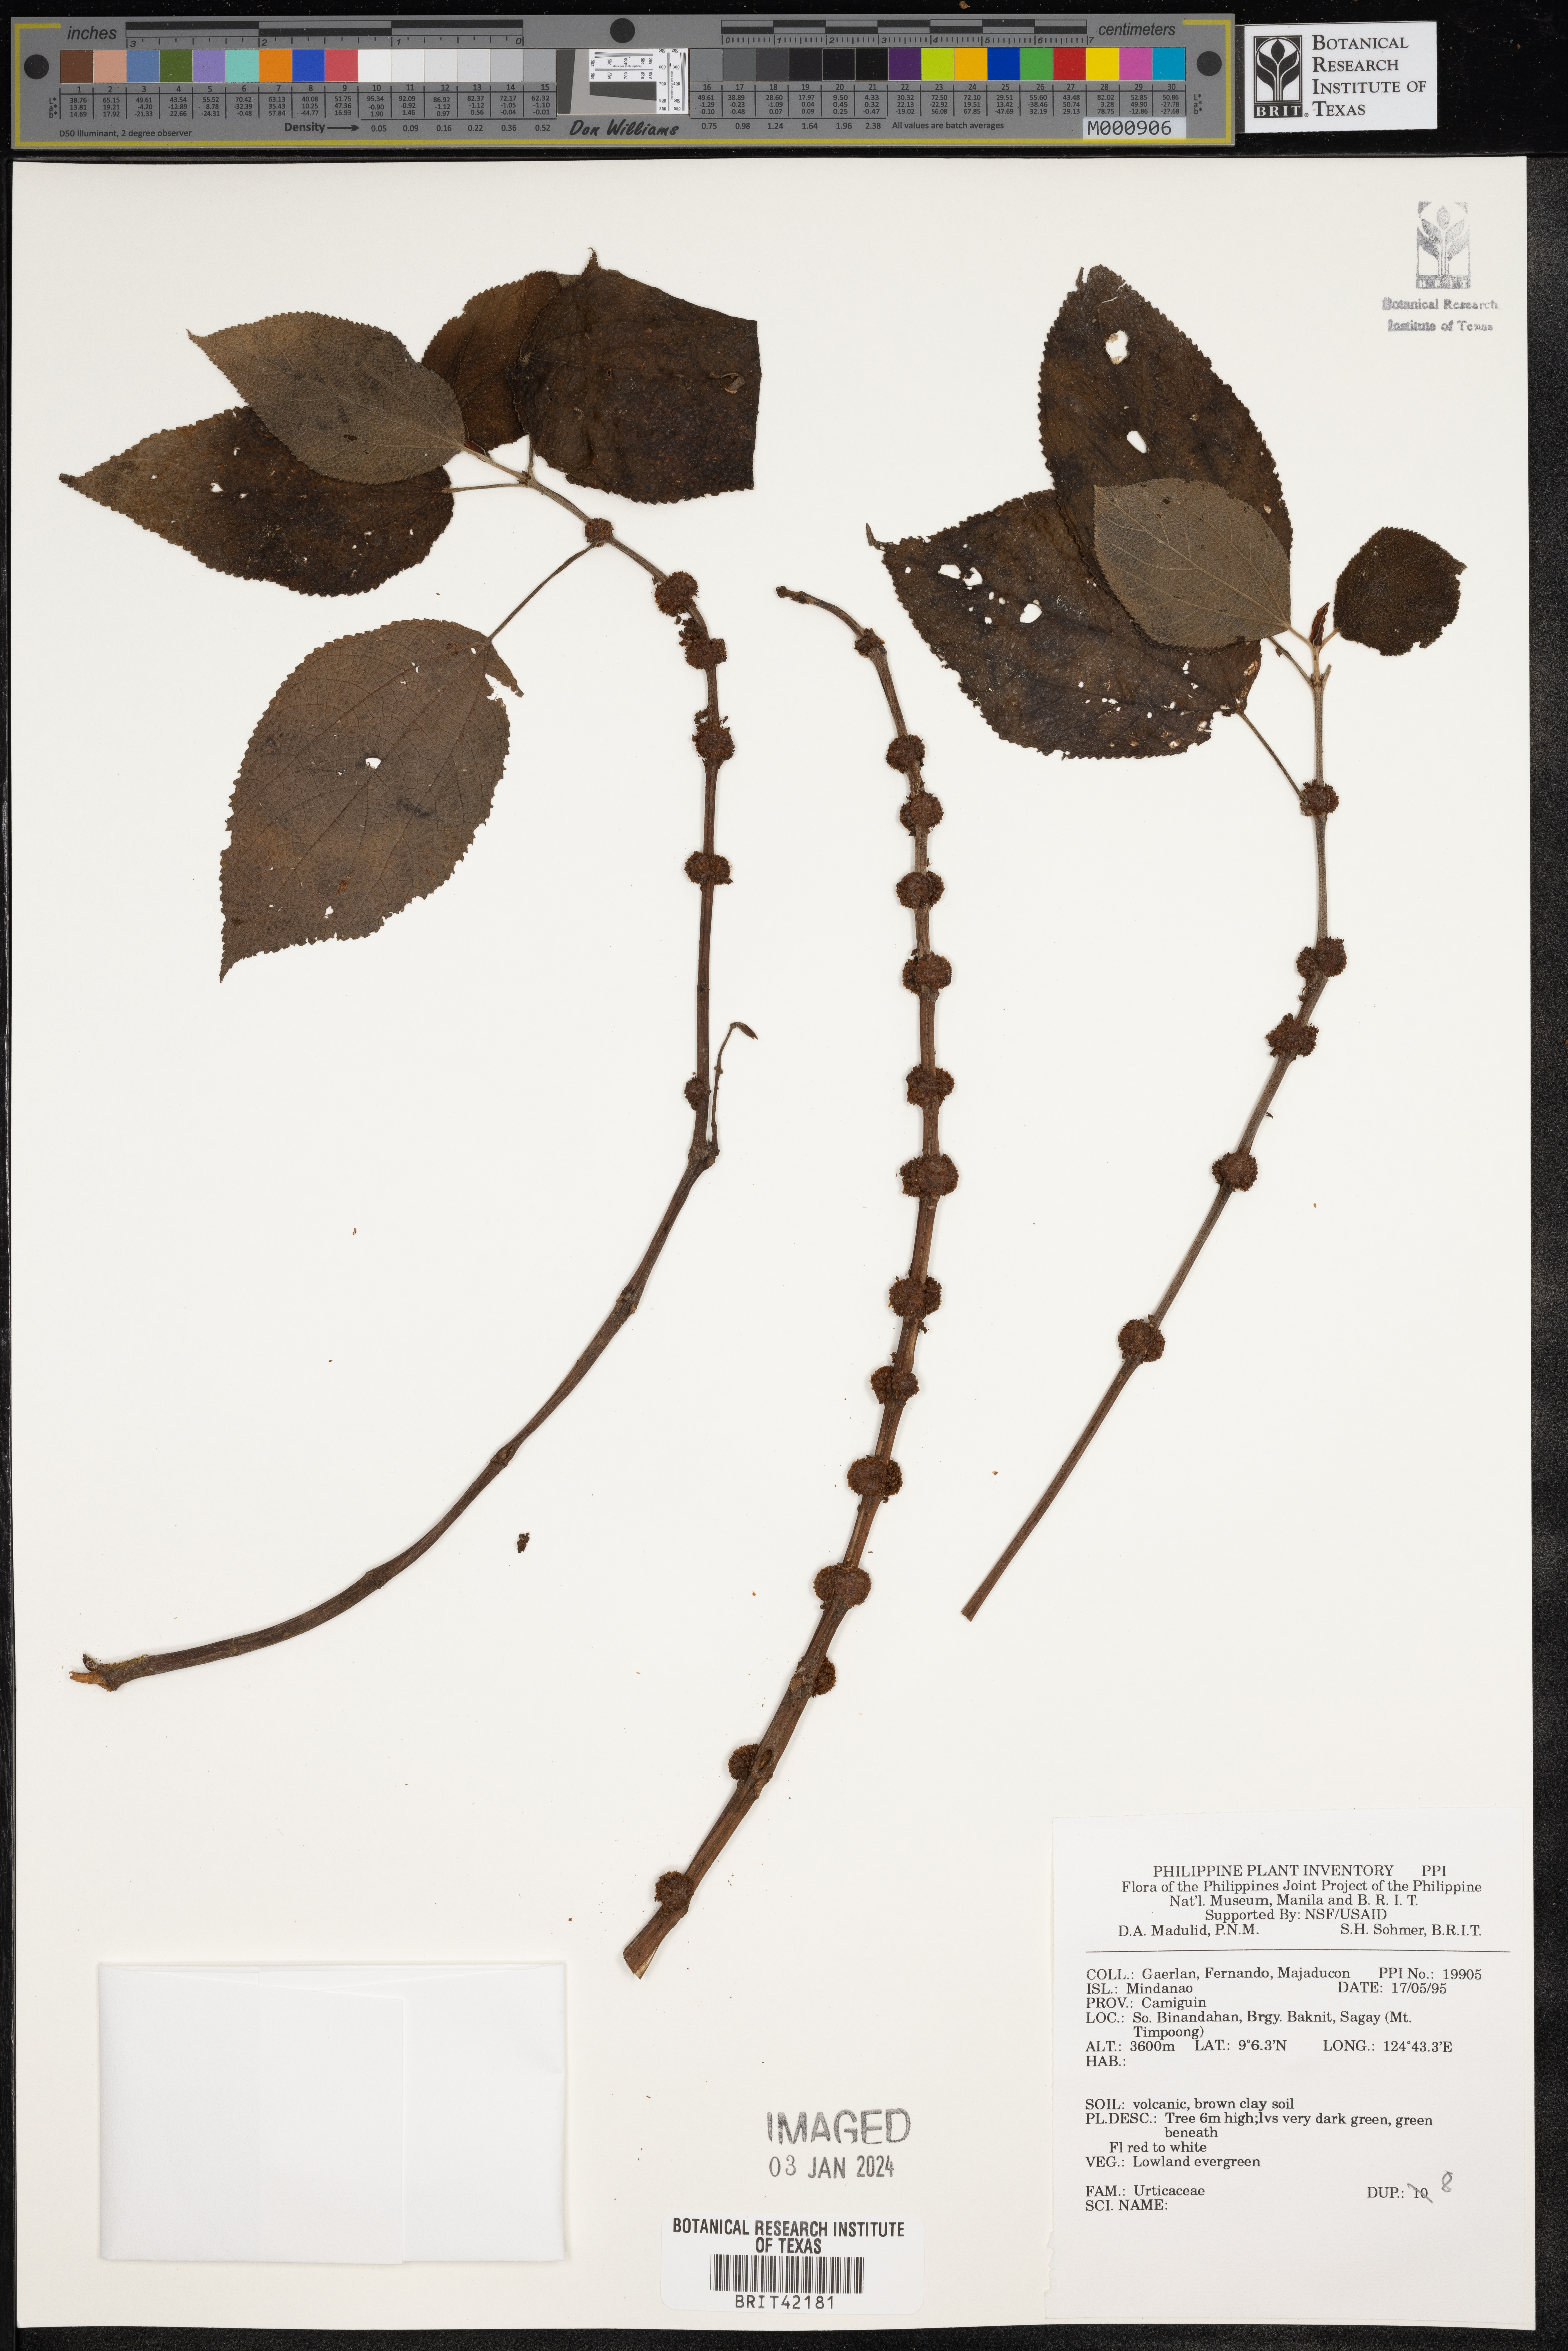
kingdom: Plantae
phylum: Tracheophyta
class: Magnoliopsida
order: Rosales
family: Urticaceae
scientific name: Urticaceae
